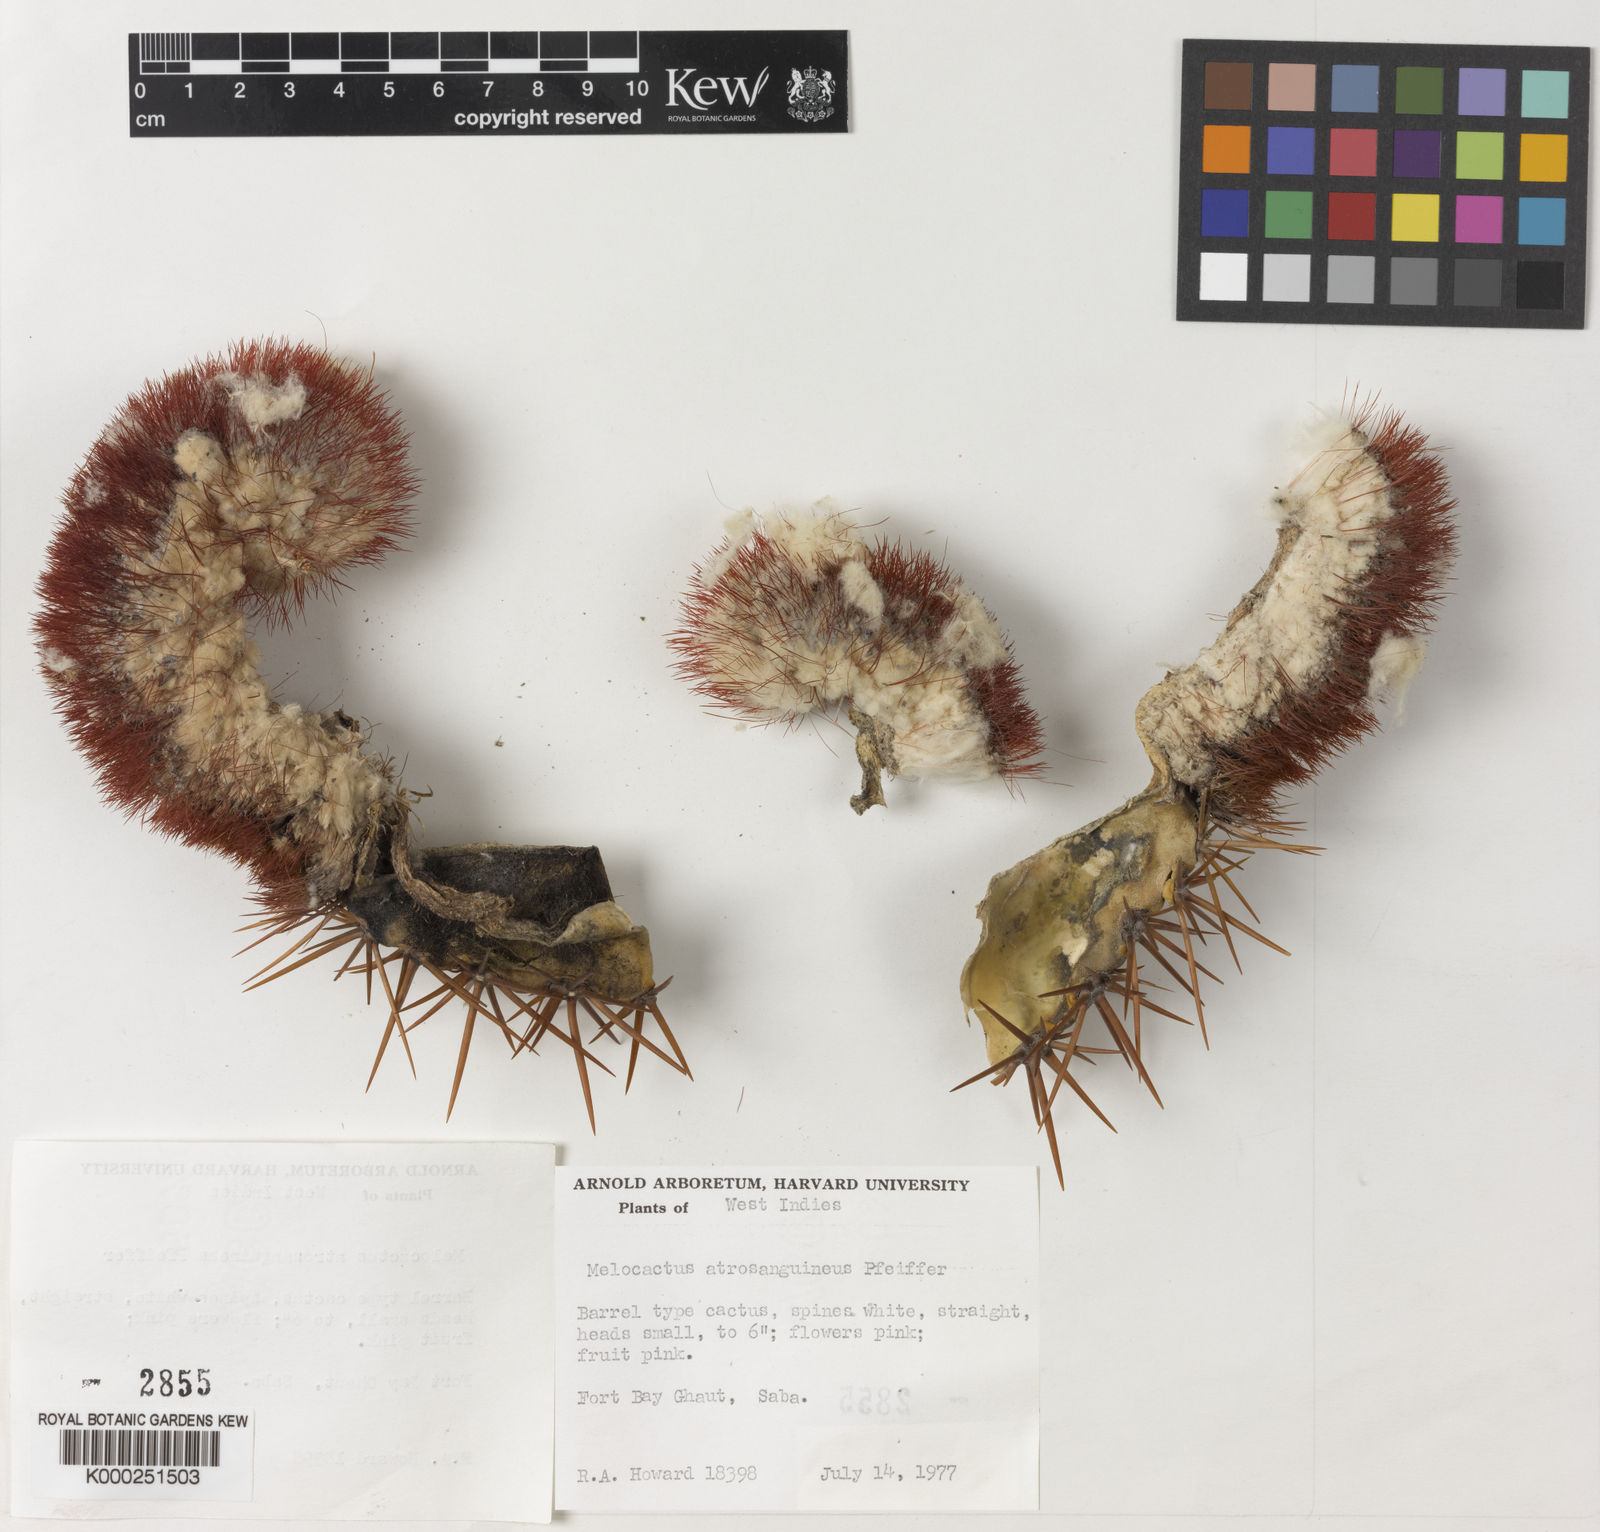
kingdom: Plantae
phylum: Tracheophyta
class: Magnoliopsida
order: Caryophyllales
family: Cactaceae
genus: Melocactus
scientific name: Melocactus
